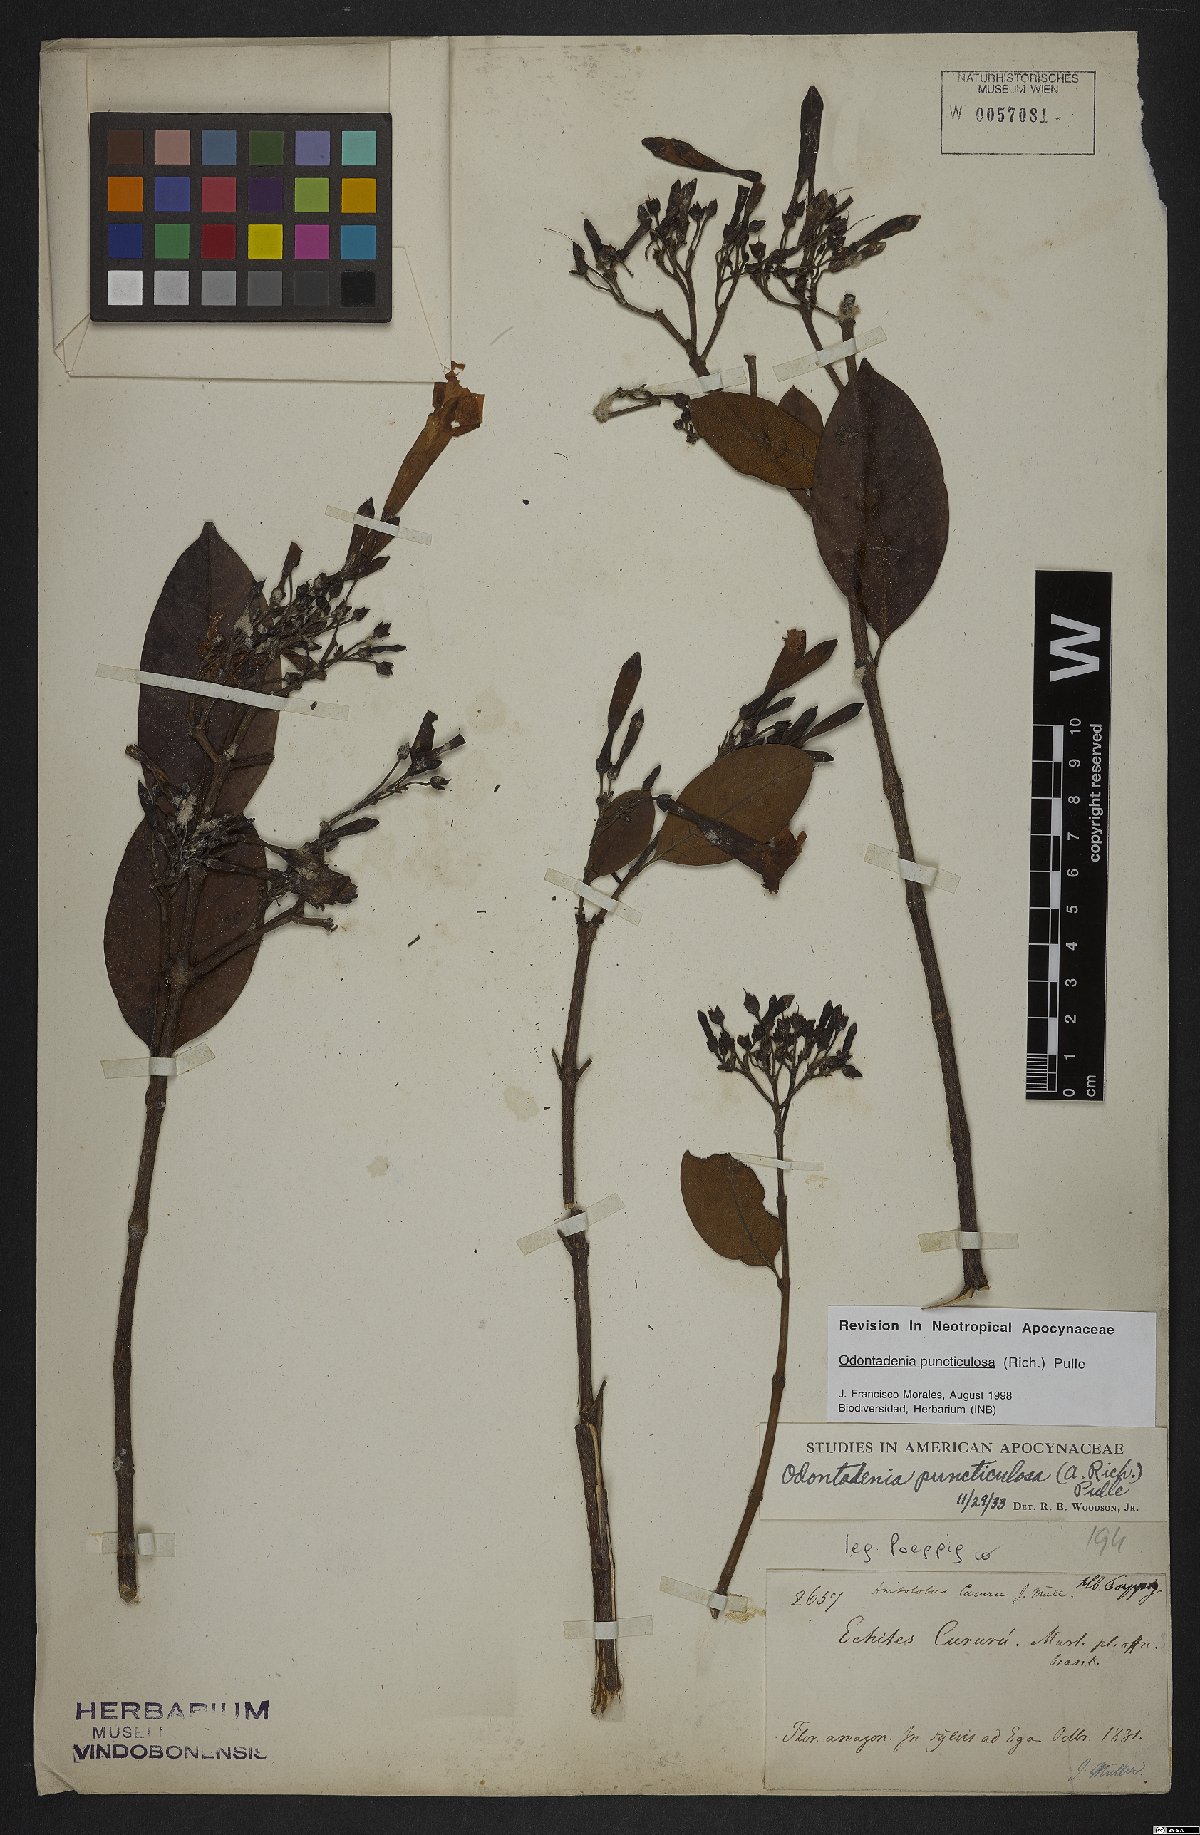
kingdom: Plantae
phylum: Tracheophyta
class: Magnoliopsida
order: Gentianales
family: Apocynaceae
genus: Odontadenia
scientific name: Odontadenia puncticulosa
